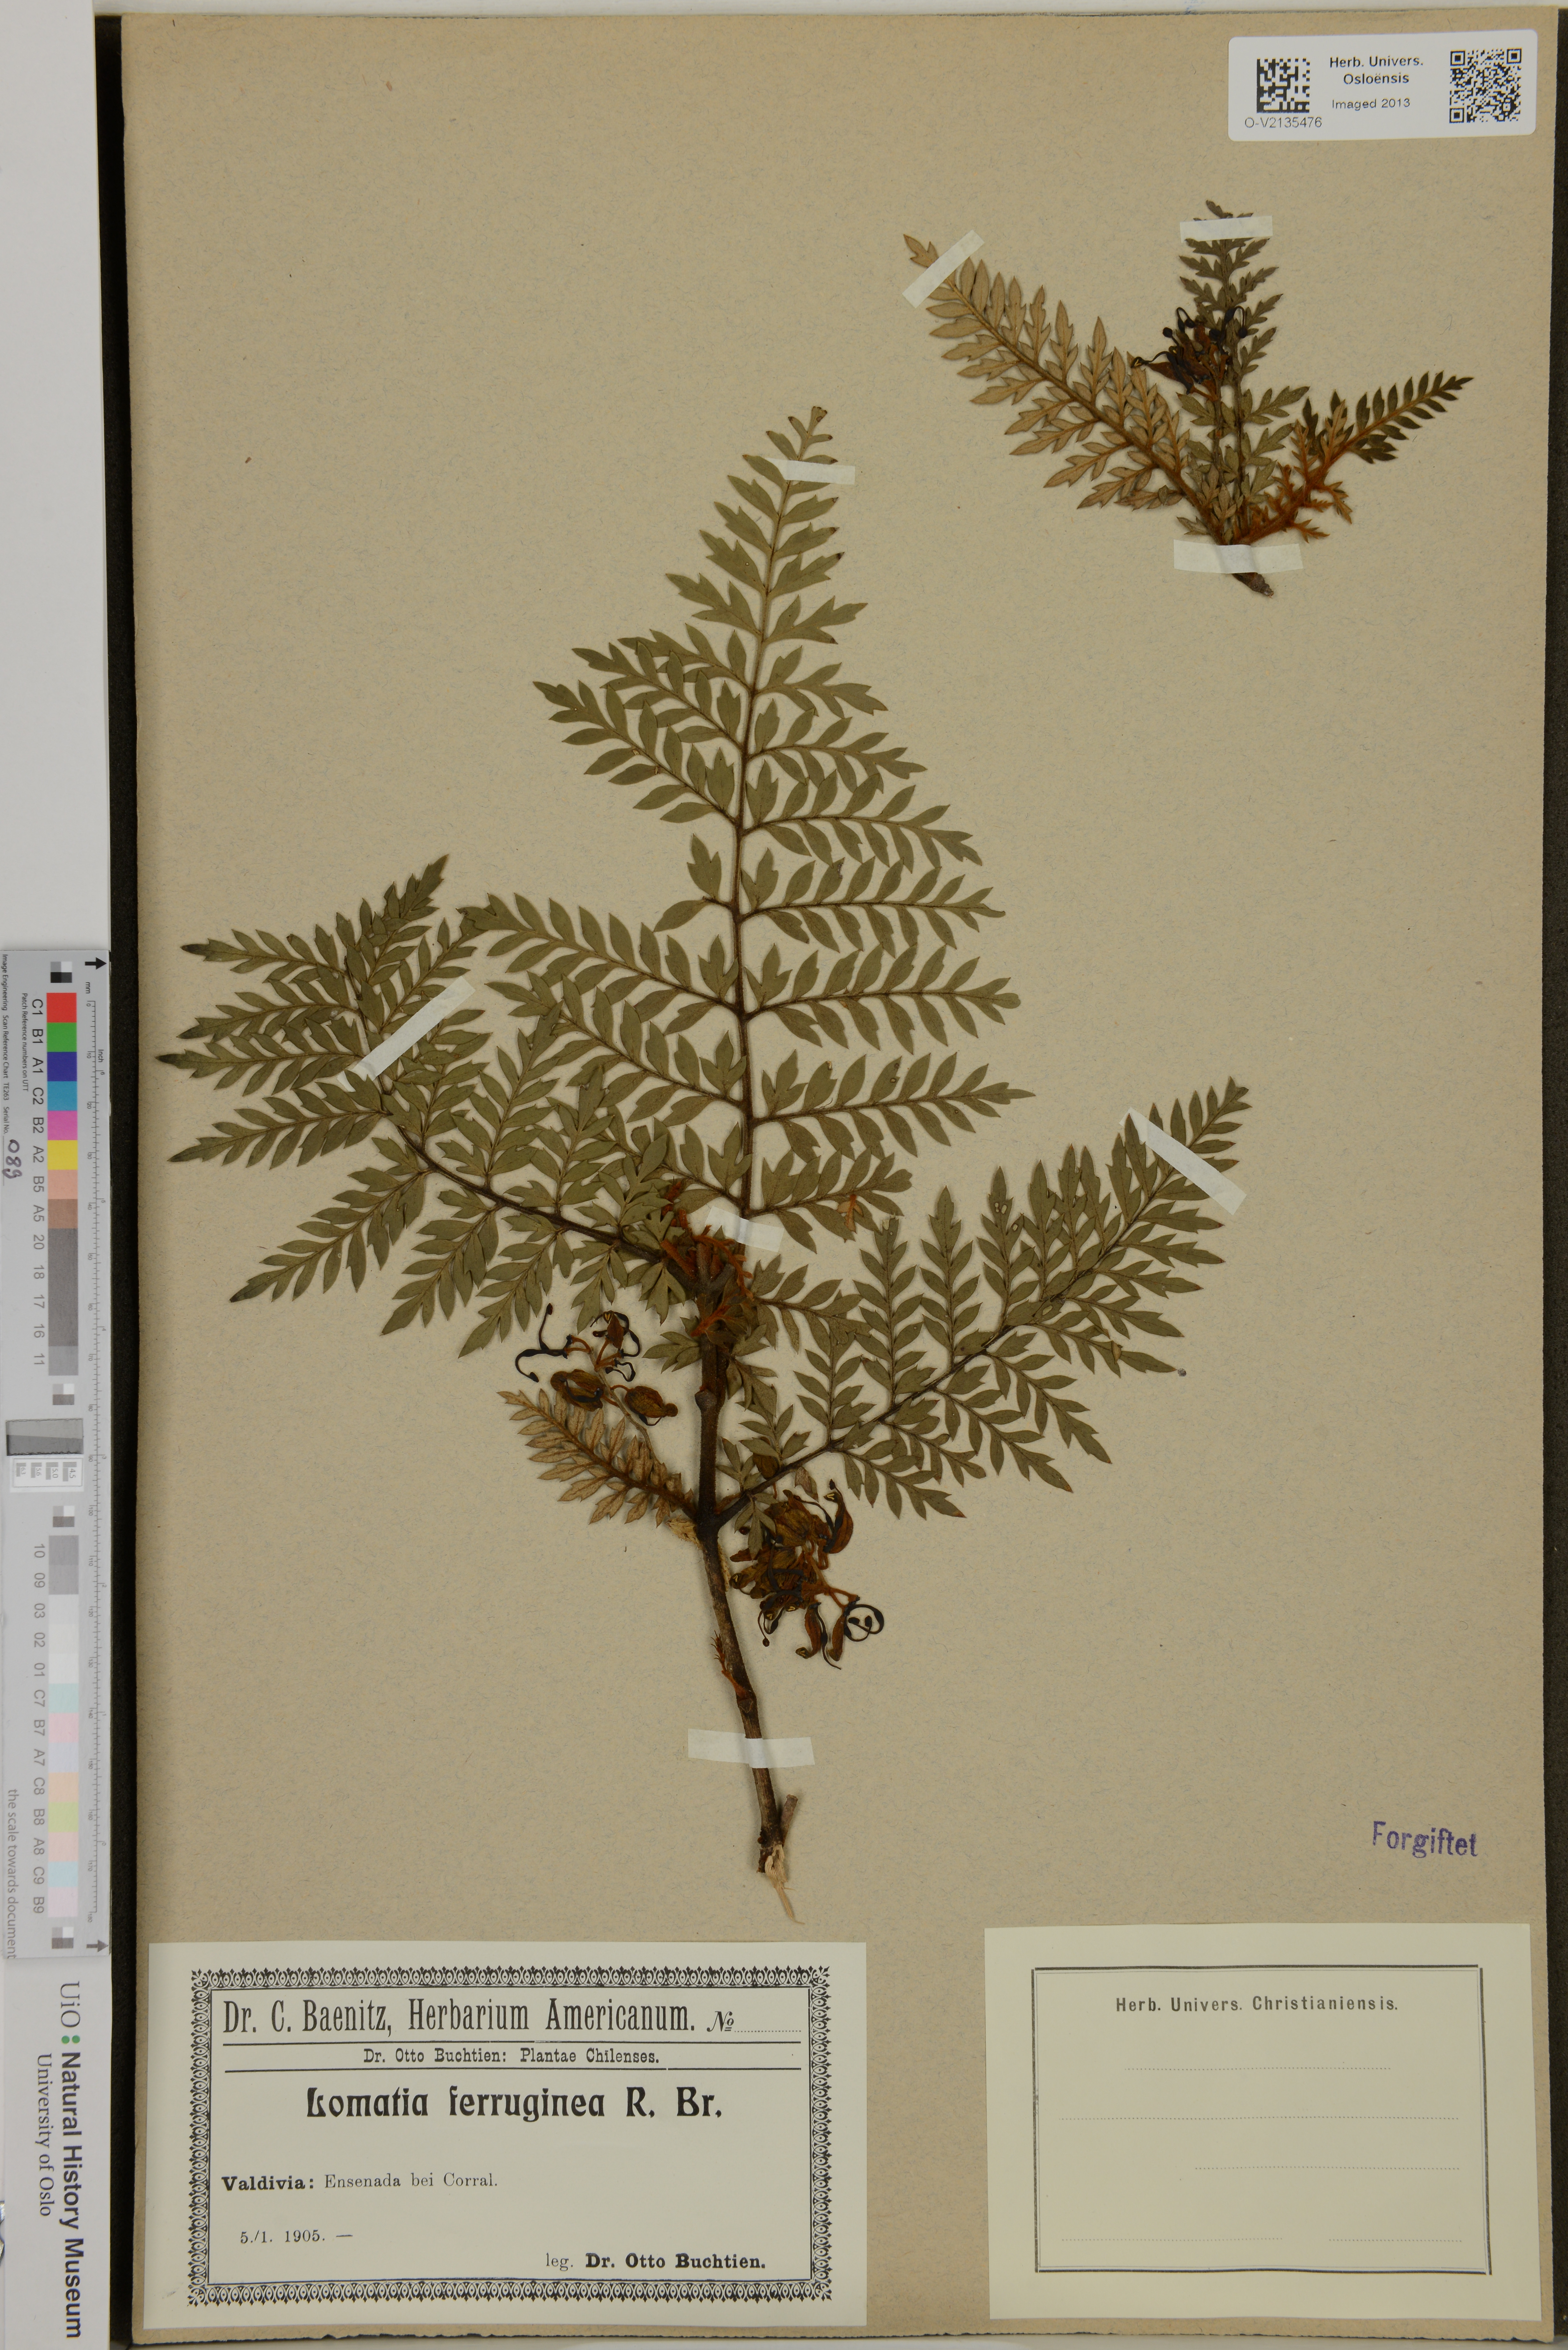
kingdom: Plantae
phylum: Tracheophyta
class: Magnoliopsida
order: Proteales
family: Proteaceae
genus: Lomatia
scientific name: Lomatia ferruginea
